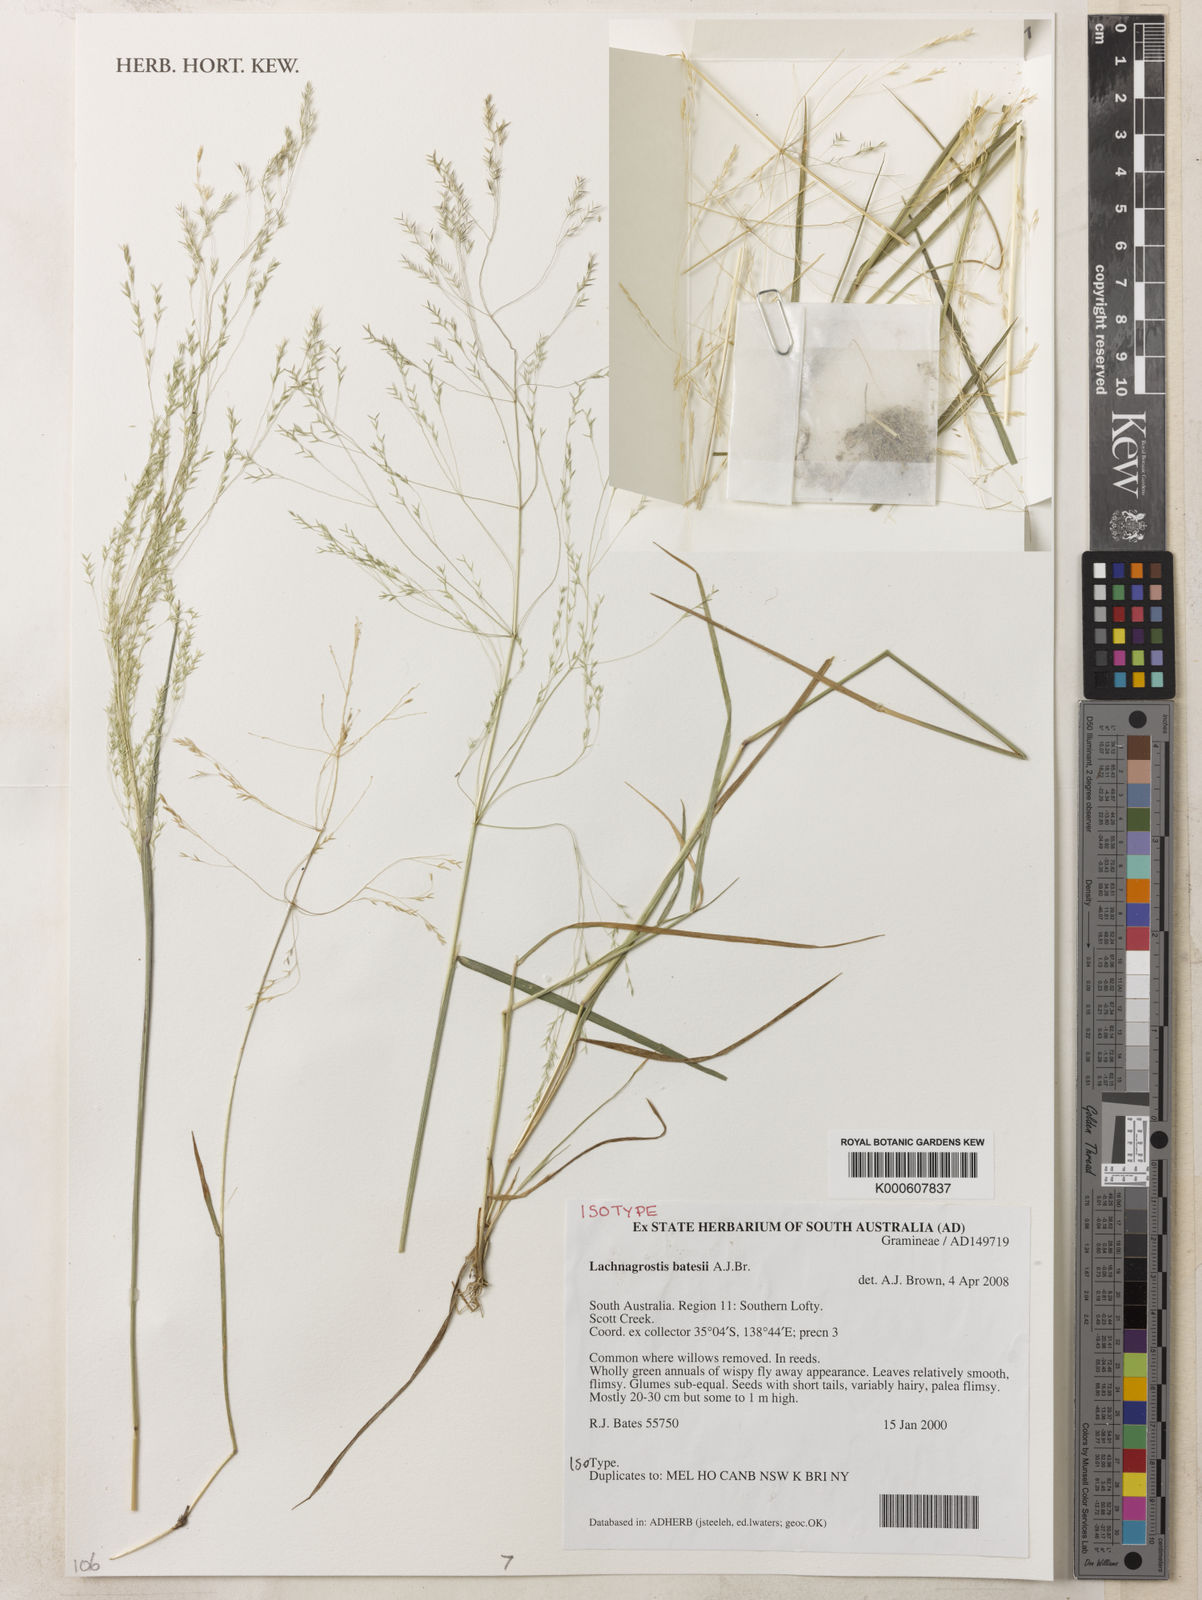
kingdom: Plantae
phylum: Tracheophyta
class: Liliopsida
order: Poales
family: Poaceae
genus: Lachnagrostis
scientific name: Lachnagrostis batesii
